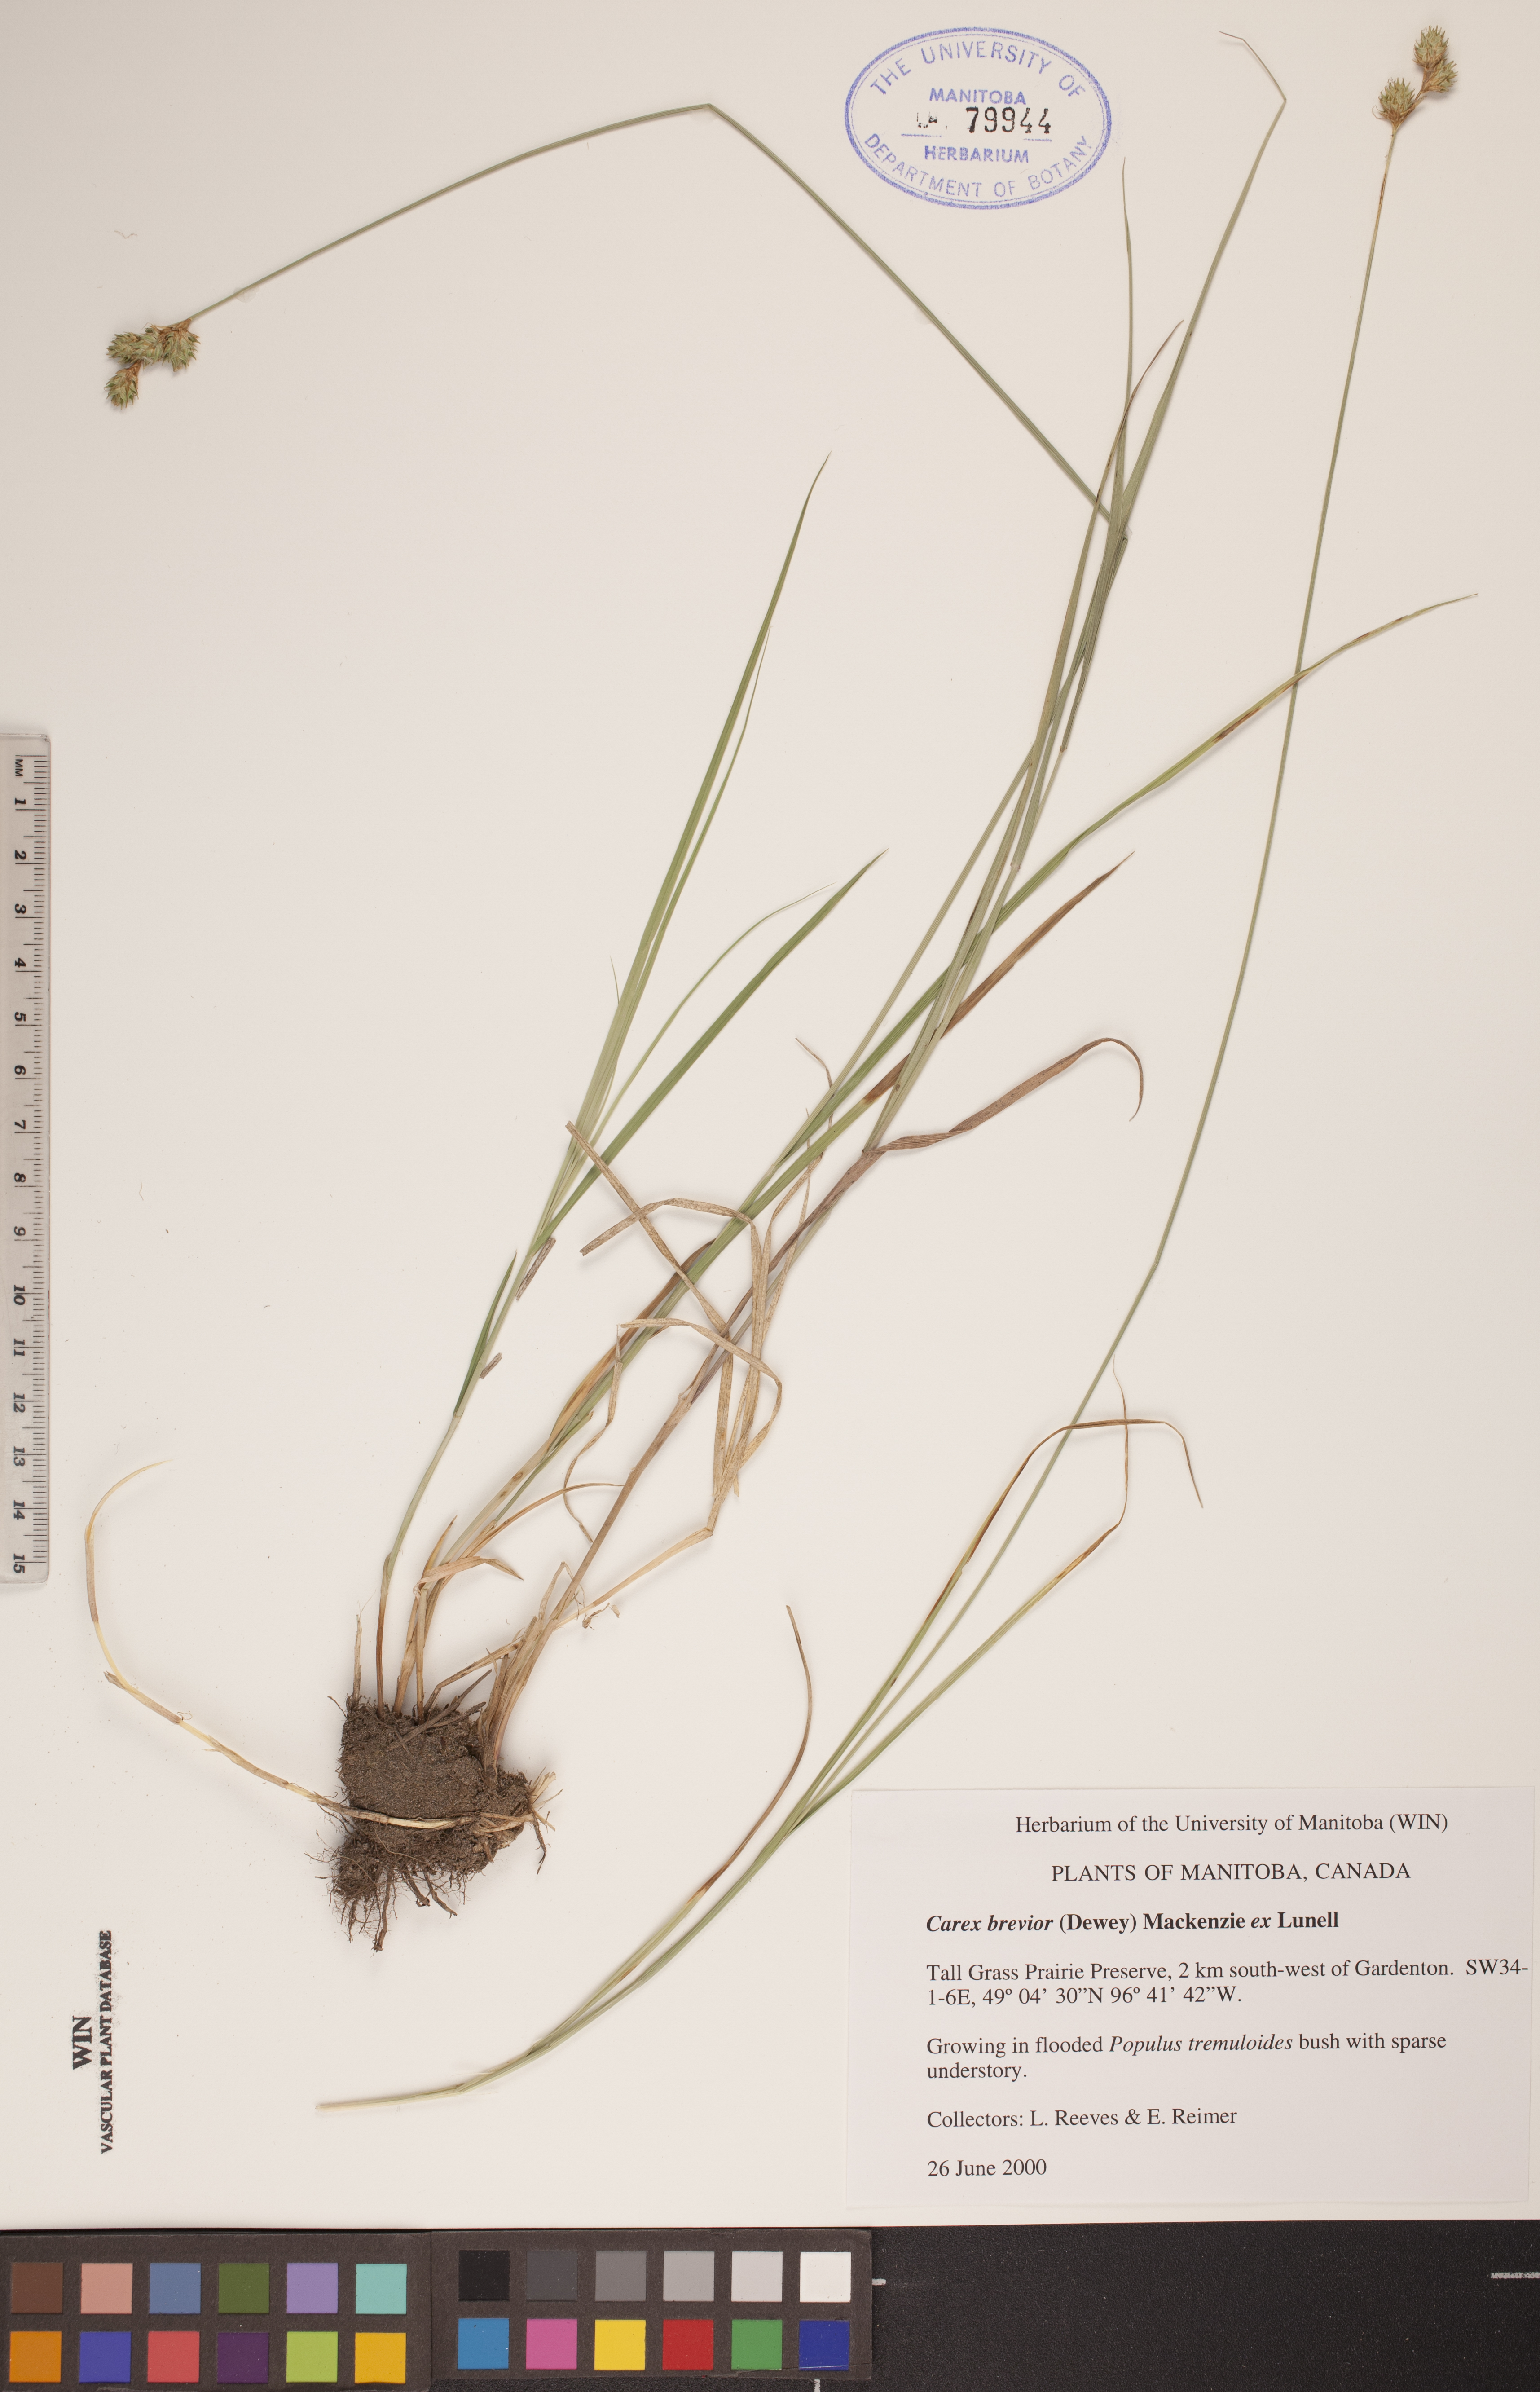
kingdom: Plantae
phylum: Tracheophyta
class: Liliopsida
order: Poales
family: Cyperaceae
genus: Carex
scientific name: Carex brevior
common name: Brevior sedge
